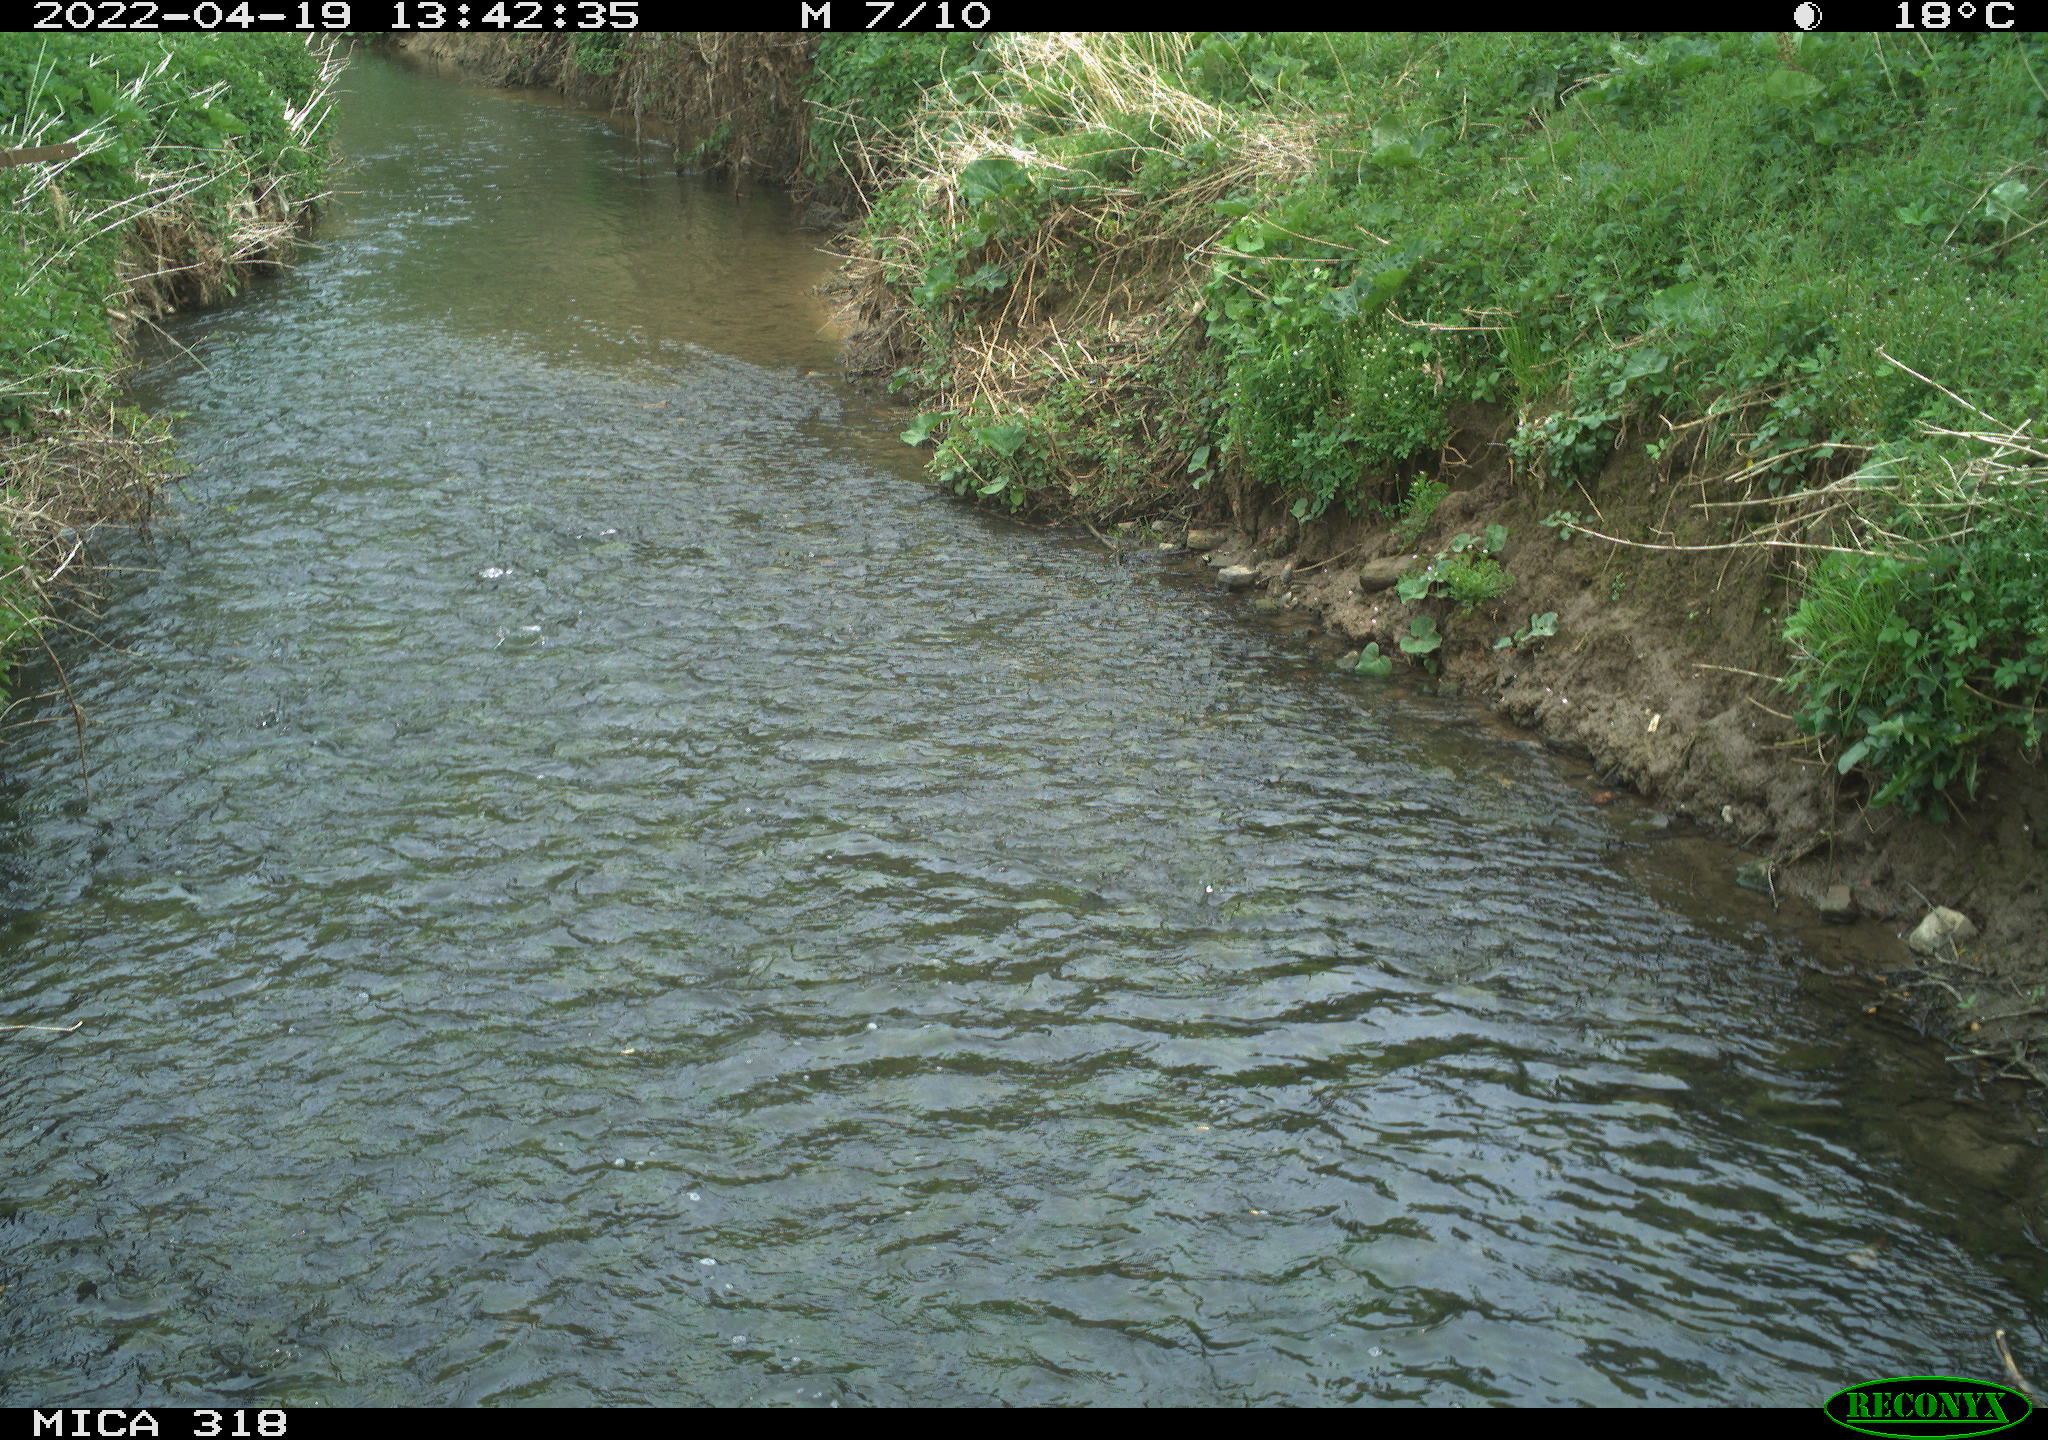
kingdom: Animalia
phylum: Chordata
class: Aves
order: Passeriformes
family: Corvidae
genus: Corvus
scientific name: Corvus corone
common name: Carrion crow
